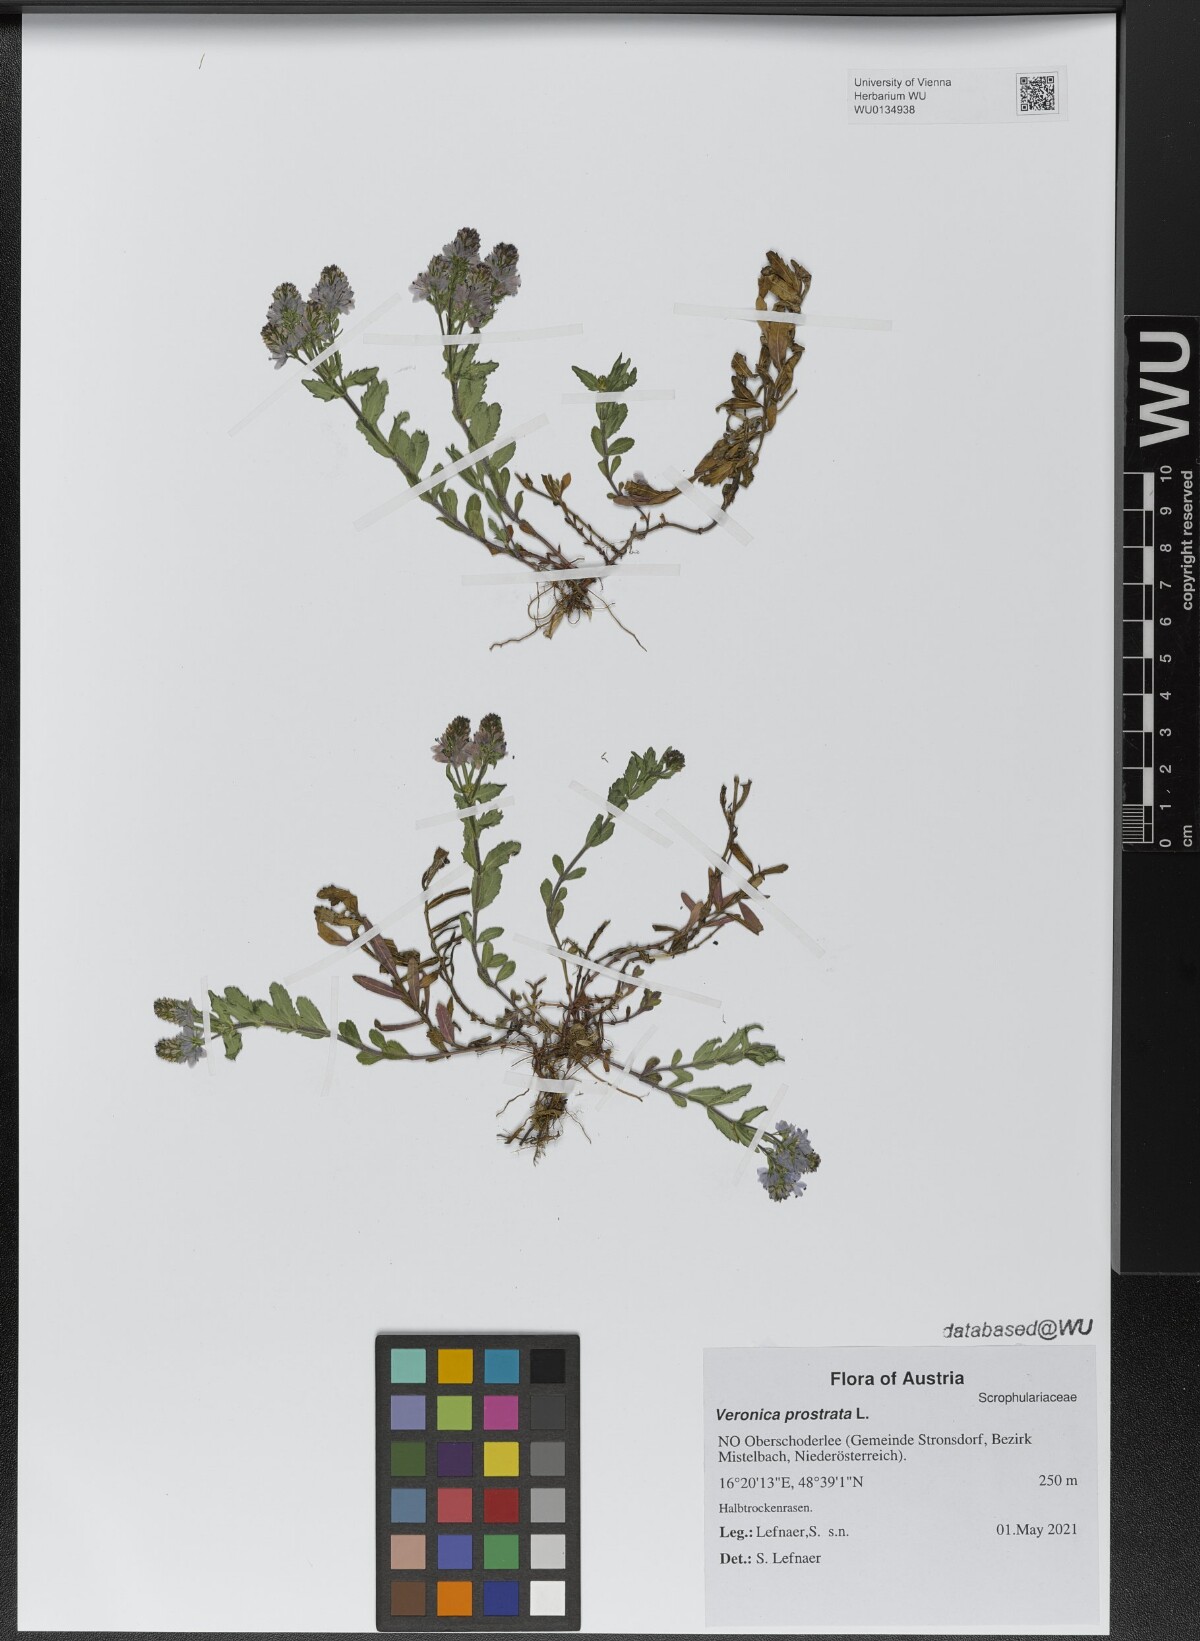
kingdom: Plantae
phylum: Tracheophyta
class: Magnoliopsida
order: Lamiales
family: Plantaginaceae
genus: Veronica
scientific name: Veronica prostrata
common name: Prostrate speedwell
